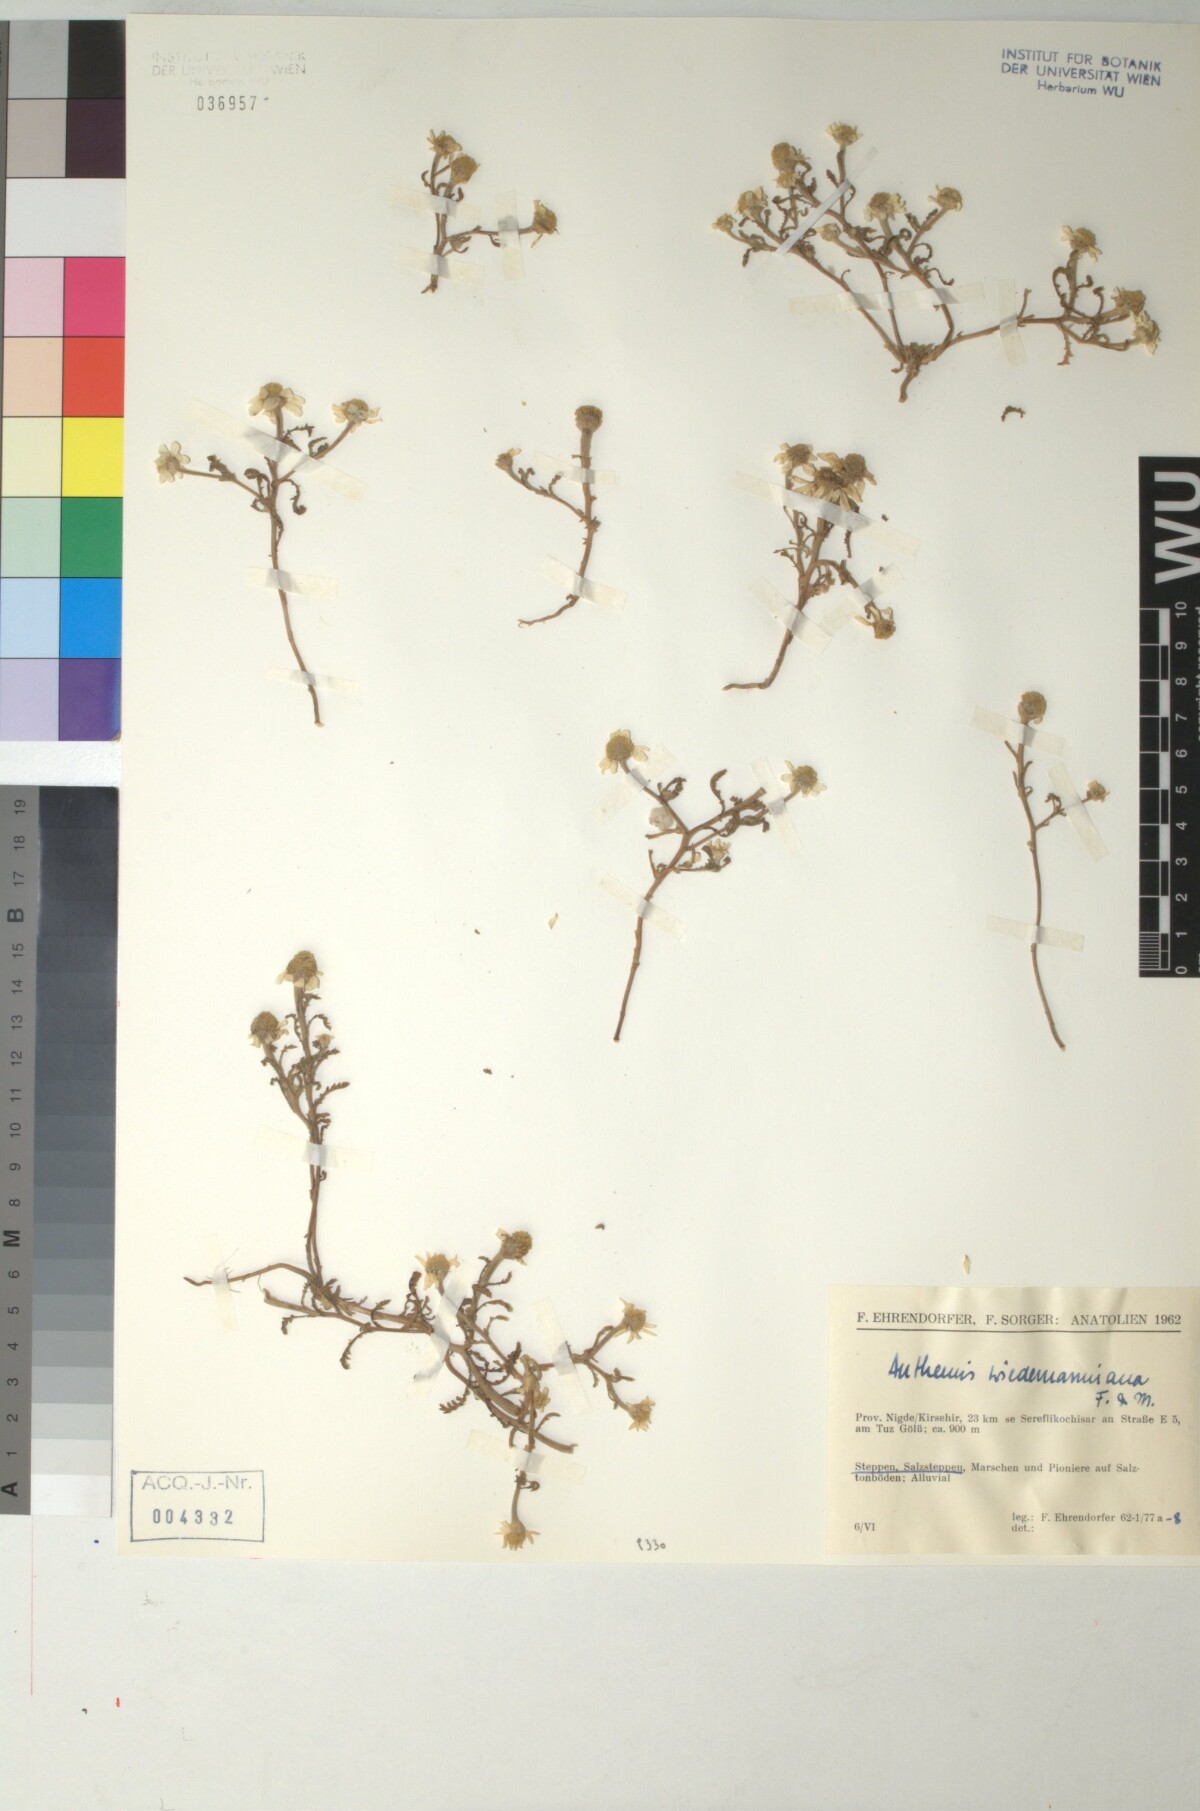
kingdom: Plantae
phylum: Tracheophyta
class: Magnoliopsida
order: Asterales
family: Asteraceae
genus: Cota
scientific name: Cota wiedemanniana
